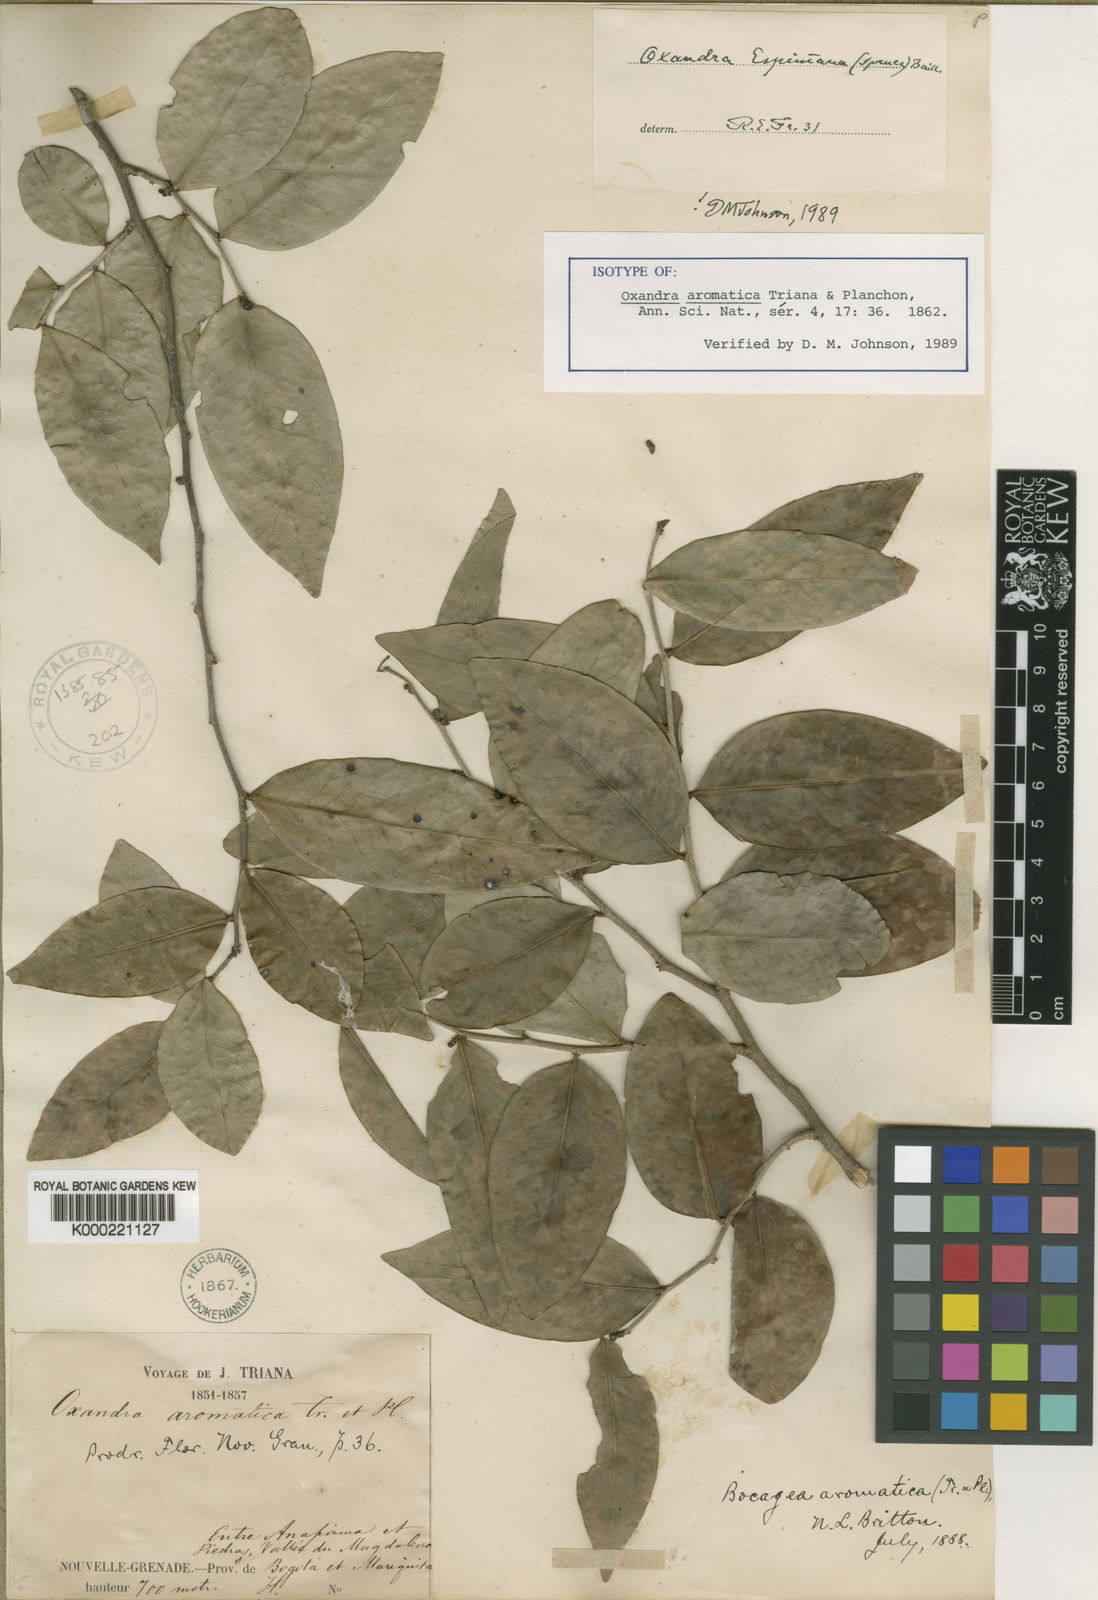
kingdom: Plantae
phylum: Tracheophyta
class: Magnoliopsida
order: Magnoliales
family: Annonaceae
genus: Oxandra
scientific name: Oxandra espintana
